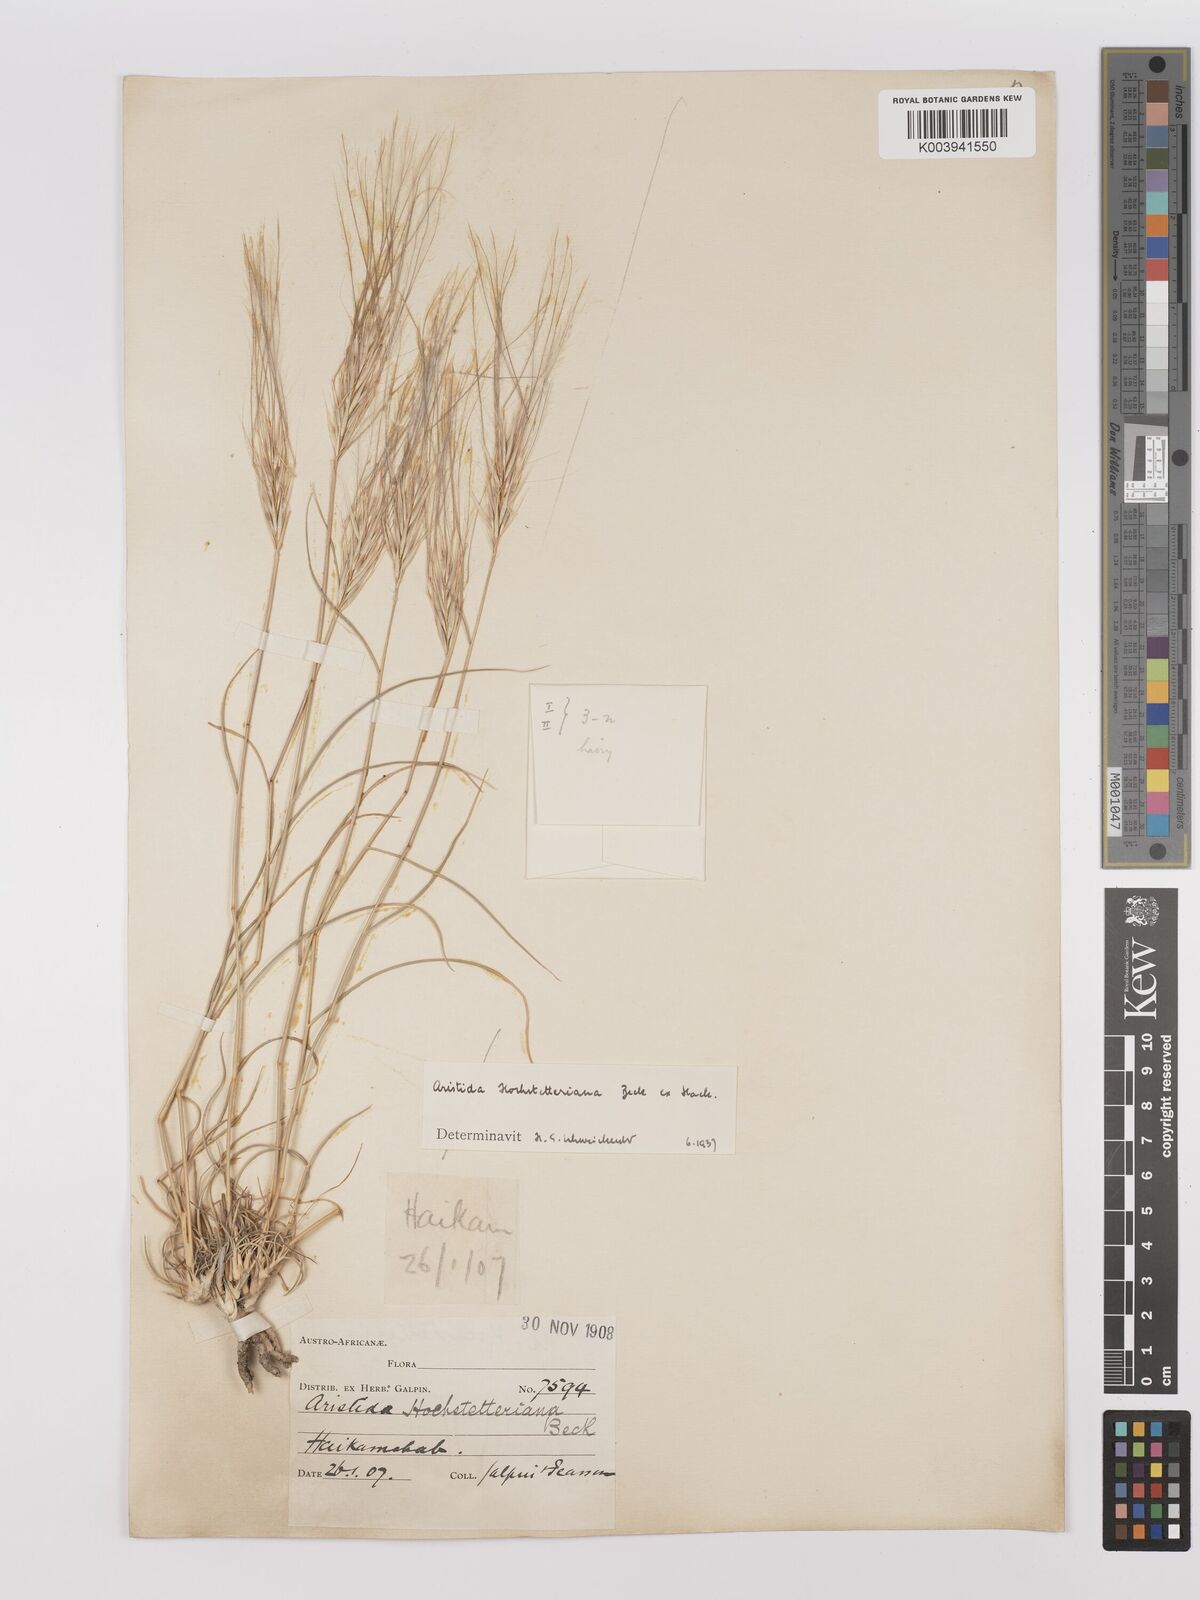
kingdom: Plantae
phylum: Tracheophyta
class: Liliopsida
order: Poales
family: Poaceae
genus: Stipagrostis
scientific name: Stipagrostis hochstetteriana
